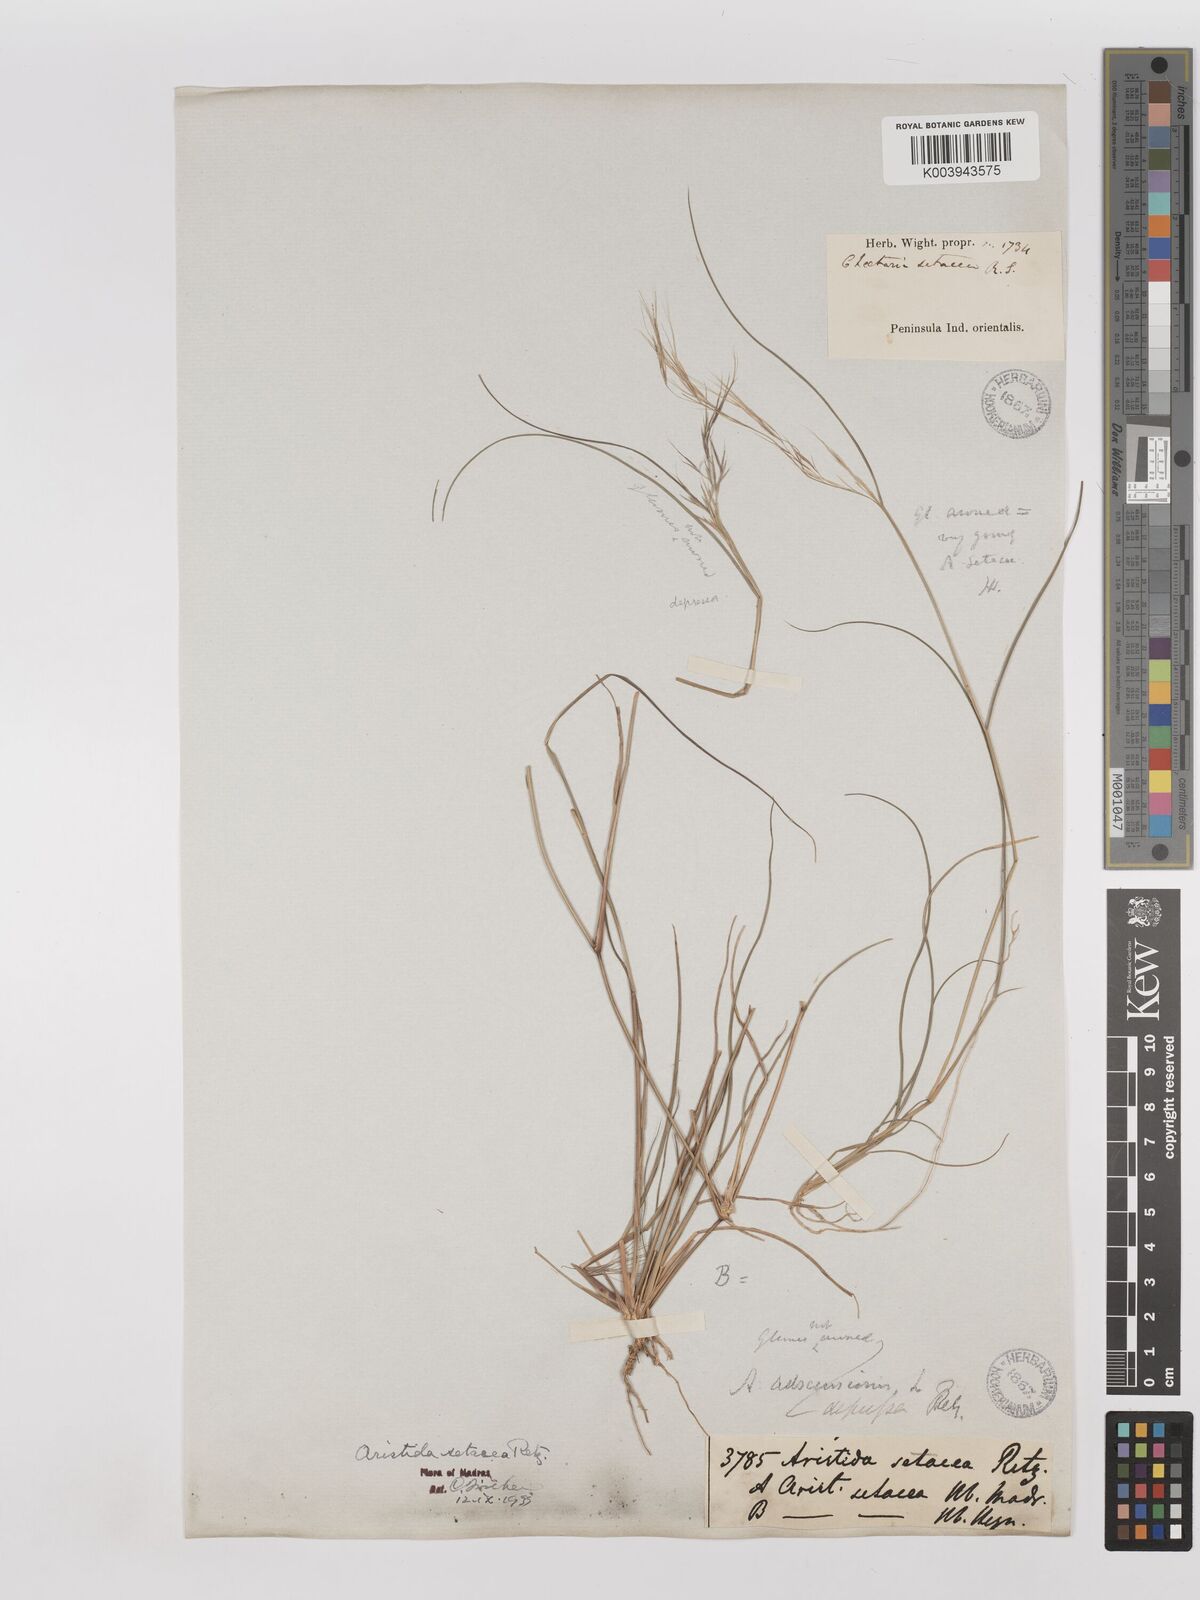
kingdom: Plantae
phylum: Tracheophyta
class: Liliopsida
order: Poales
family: Poaceae
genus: Aristida
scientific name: Aristida setacea
